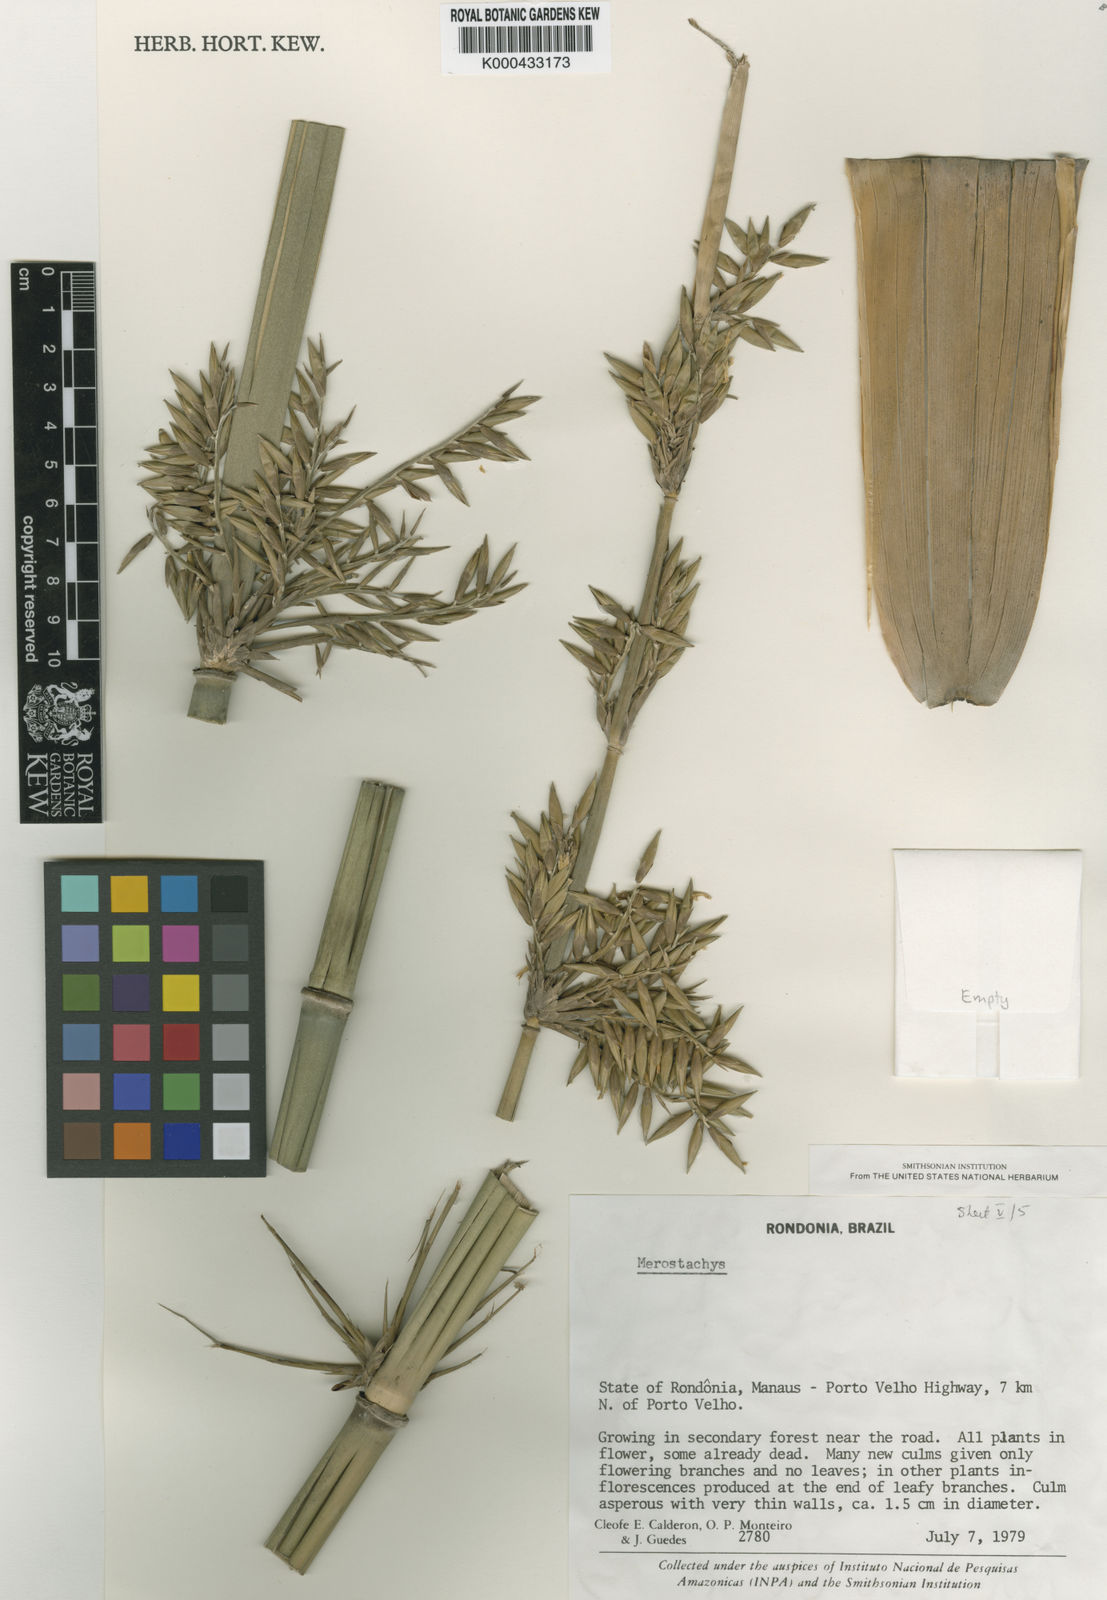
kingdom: Plantae
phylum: Tracheophyta
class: Liliopsida
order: Poales
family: Poaceae
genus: Merostachys
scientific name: Merostachys
